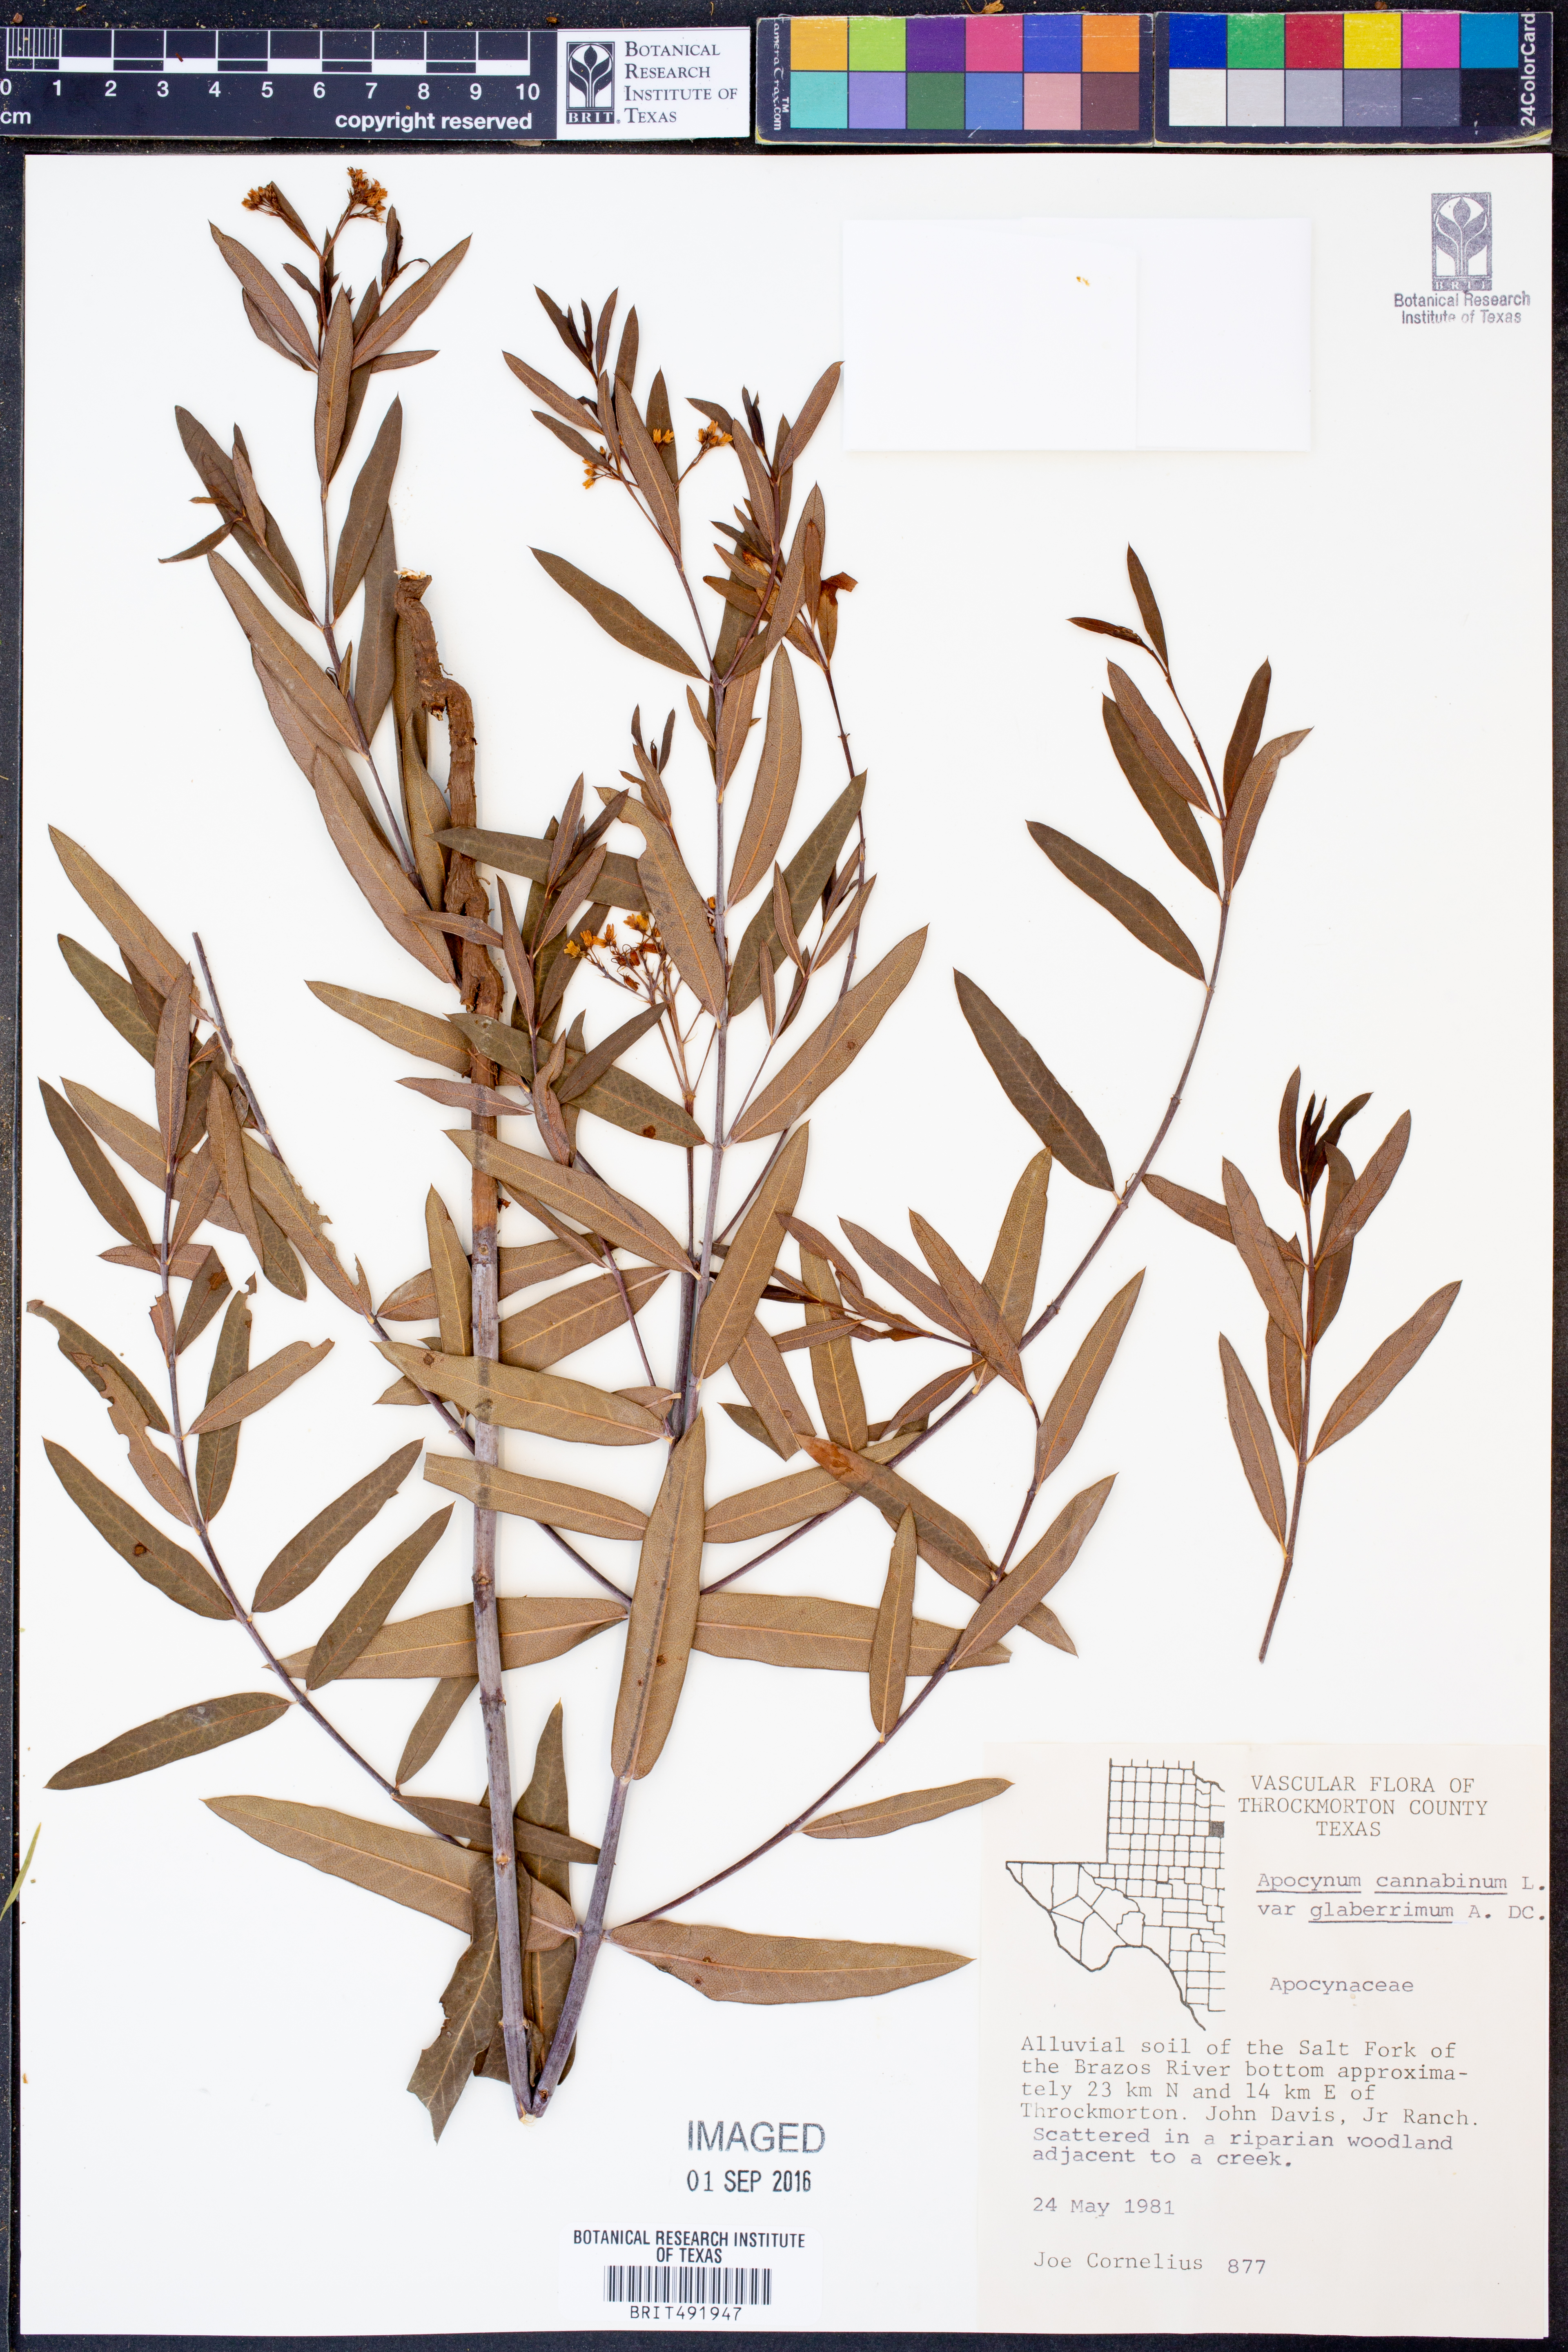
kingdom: Plantae
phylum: Tracheophyta
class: Magnoliopsida
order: Gentianales
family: Apocynaceae
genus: Apocynum
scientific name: Apocynum cannabinum
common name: Hemp dogbane
